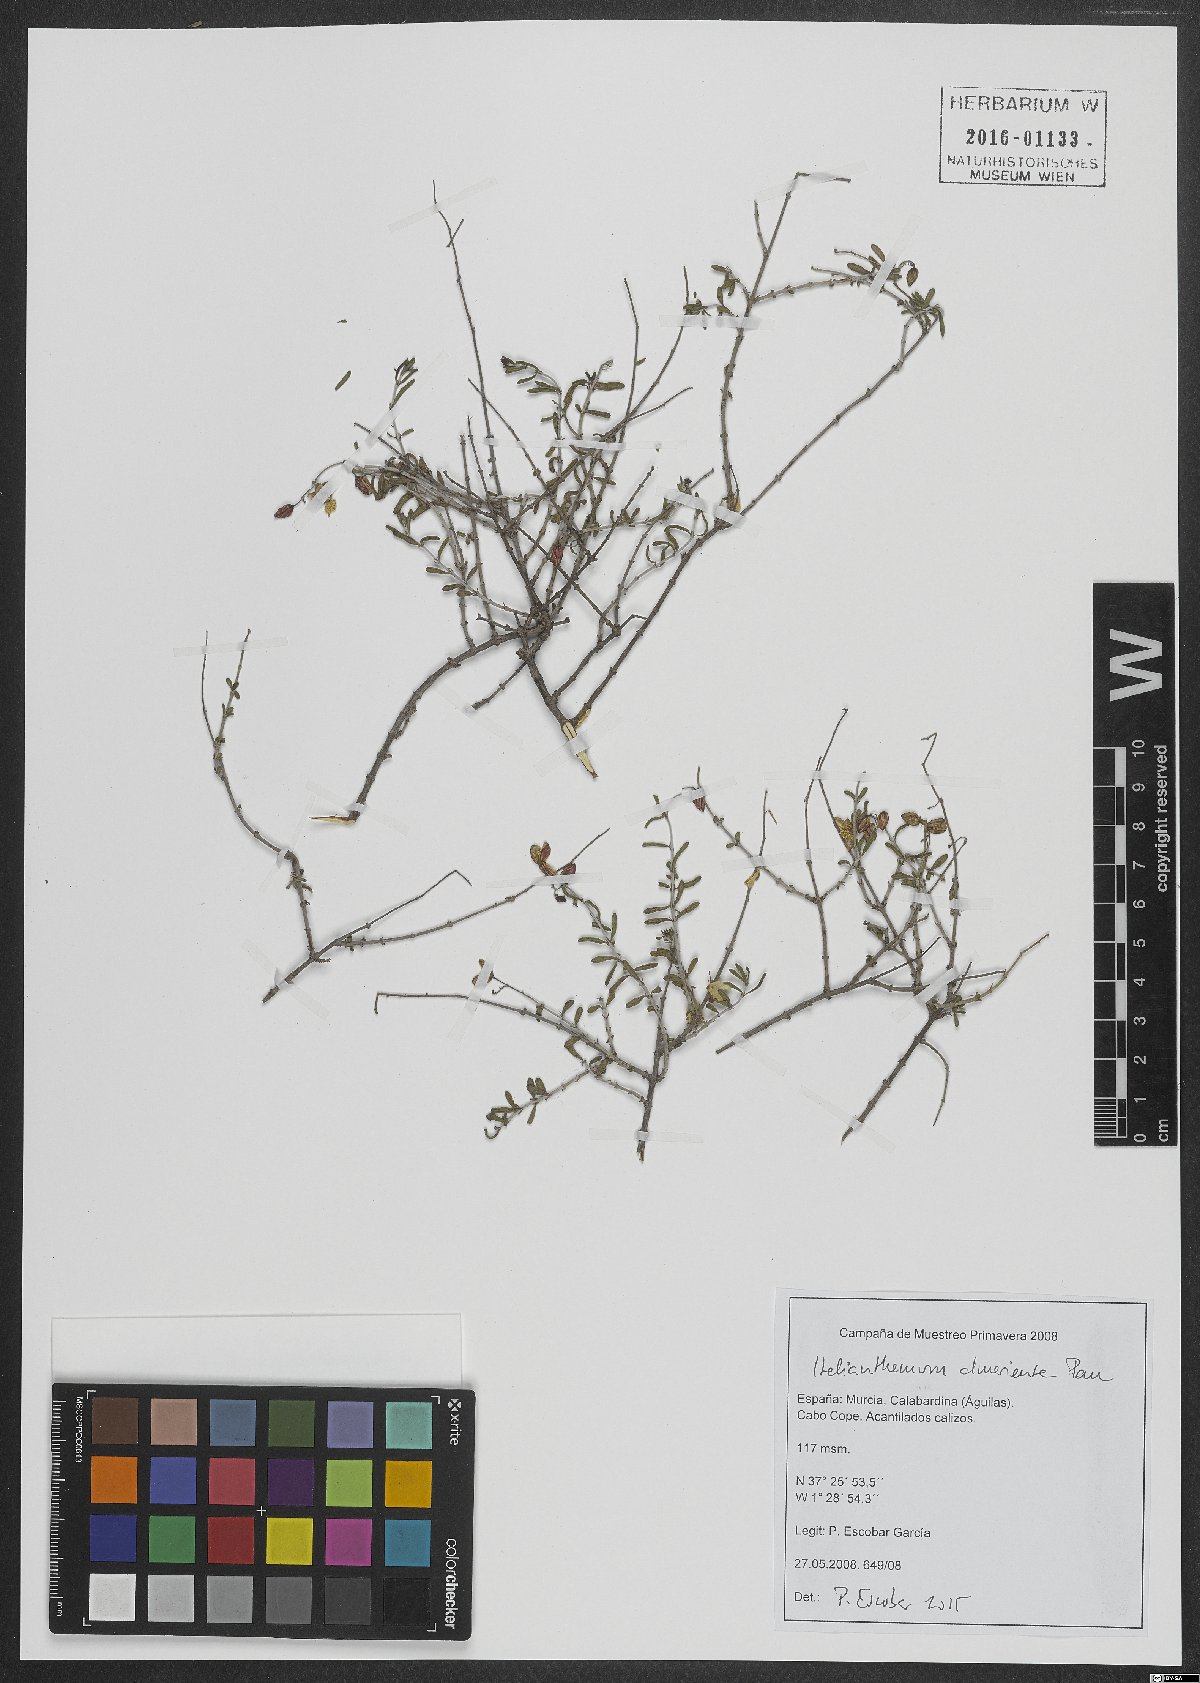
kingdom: Plantae
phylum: Tracheophyta
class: Magnoliopsida
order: Malvales
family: Cistaceae
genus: Helianthemum
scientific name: Helianthemum almeriense
